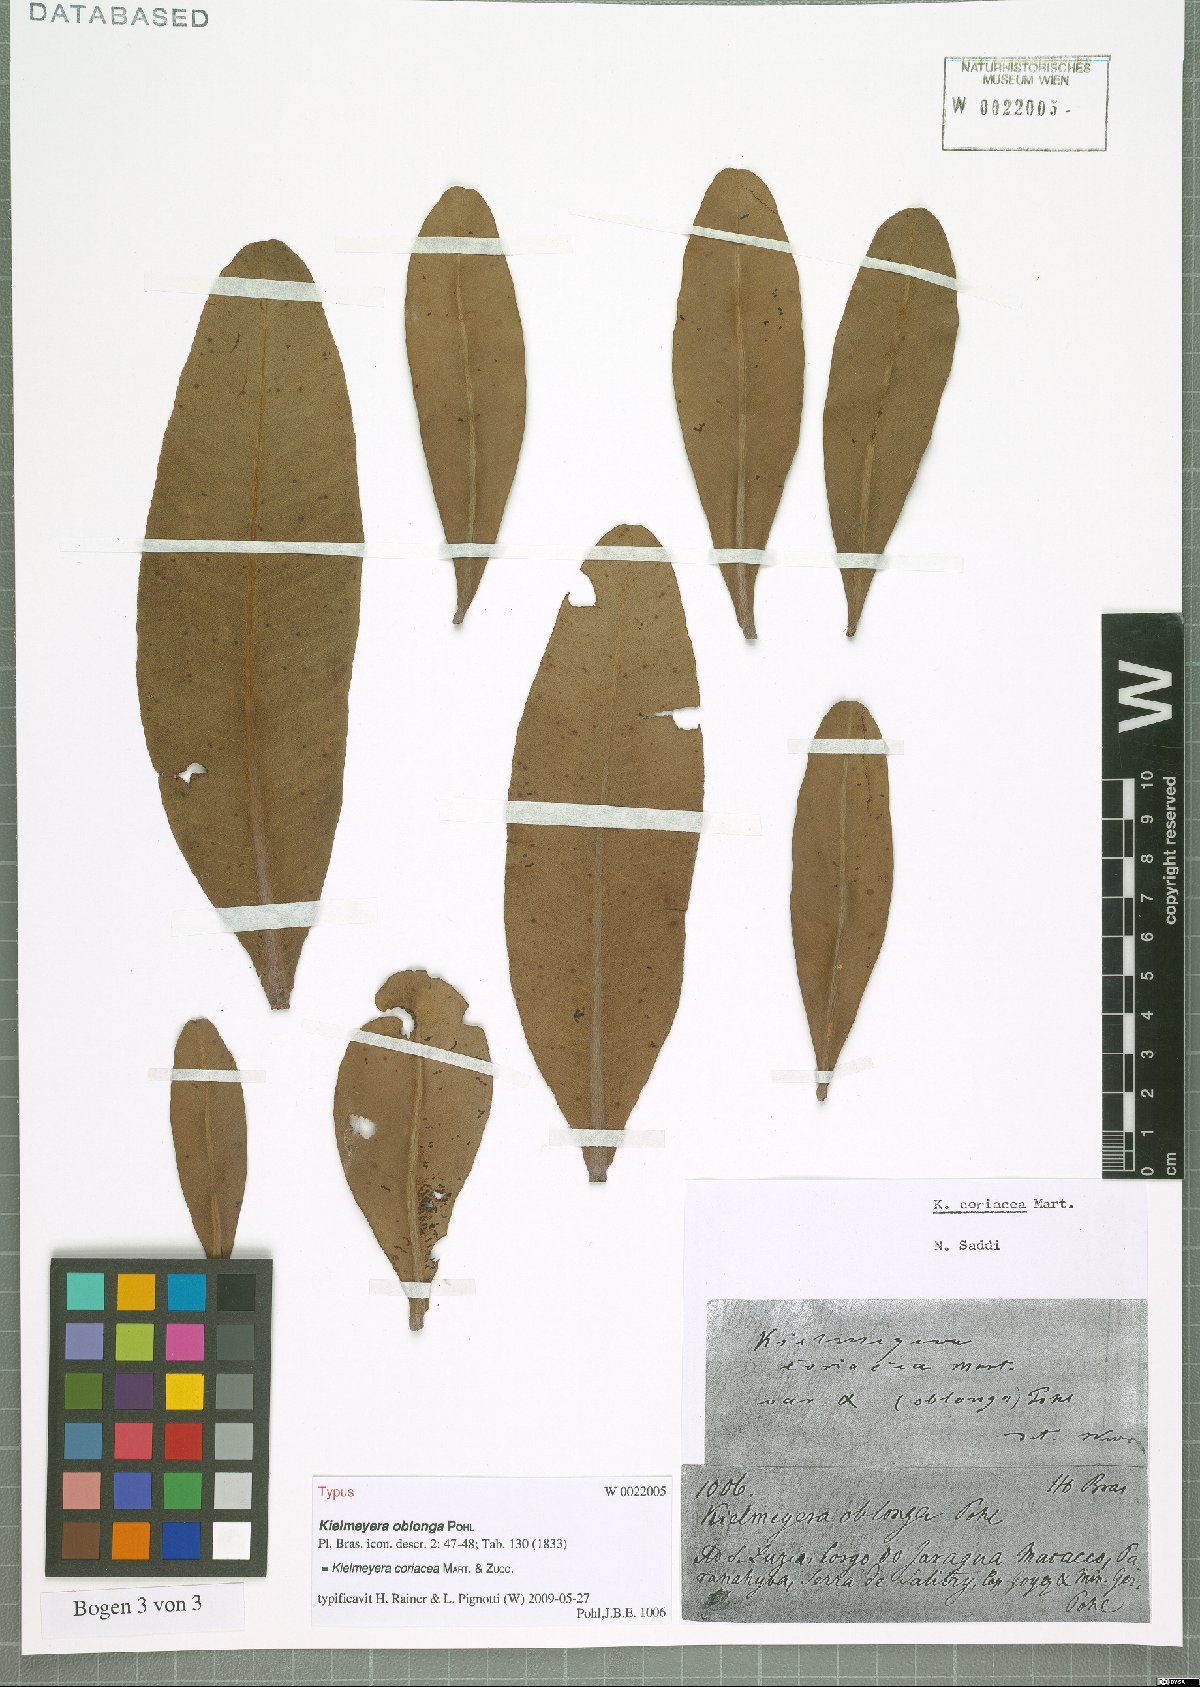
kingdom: Plantae
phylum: Tracheophyta
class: Magnoliopsida
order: Malpighiales
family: Calophyllaceae
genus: Kielmeyera
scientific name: Kielmeyera coriacea
